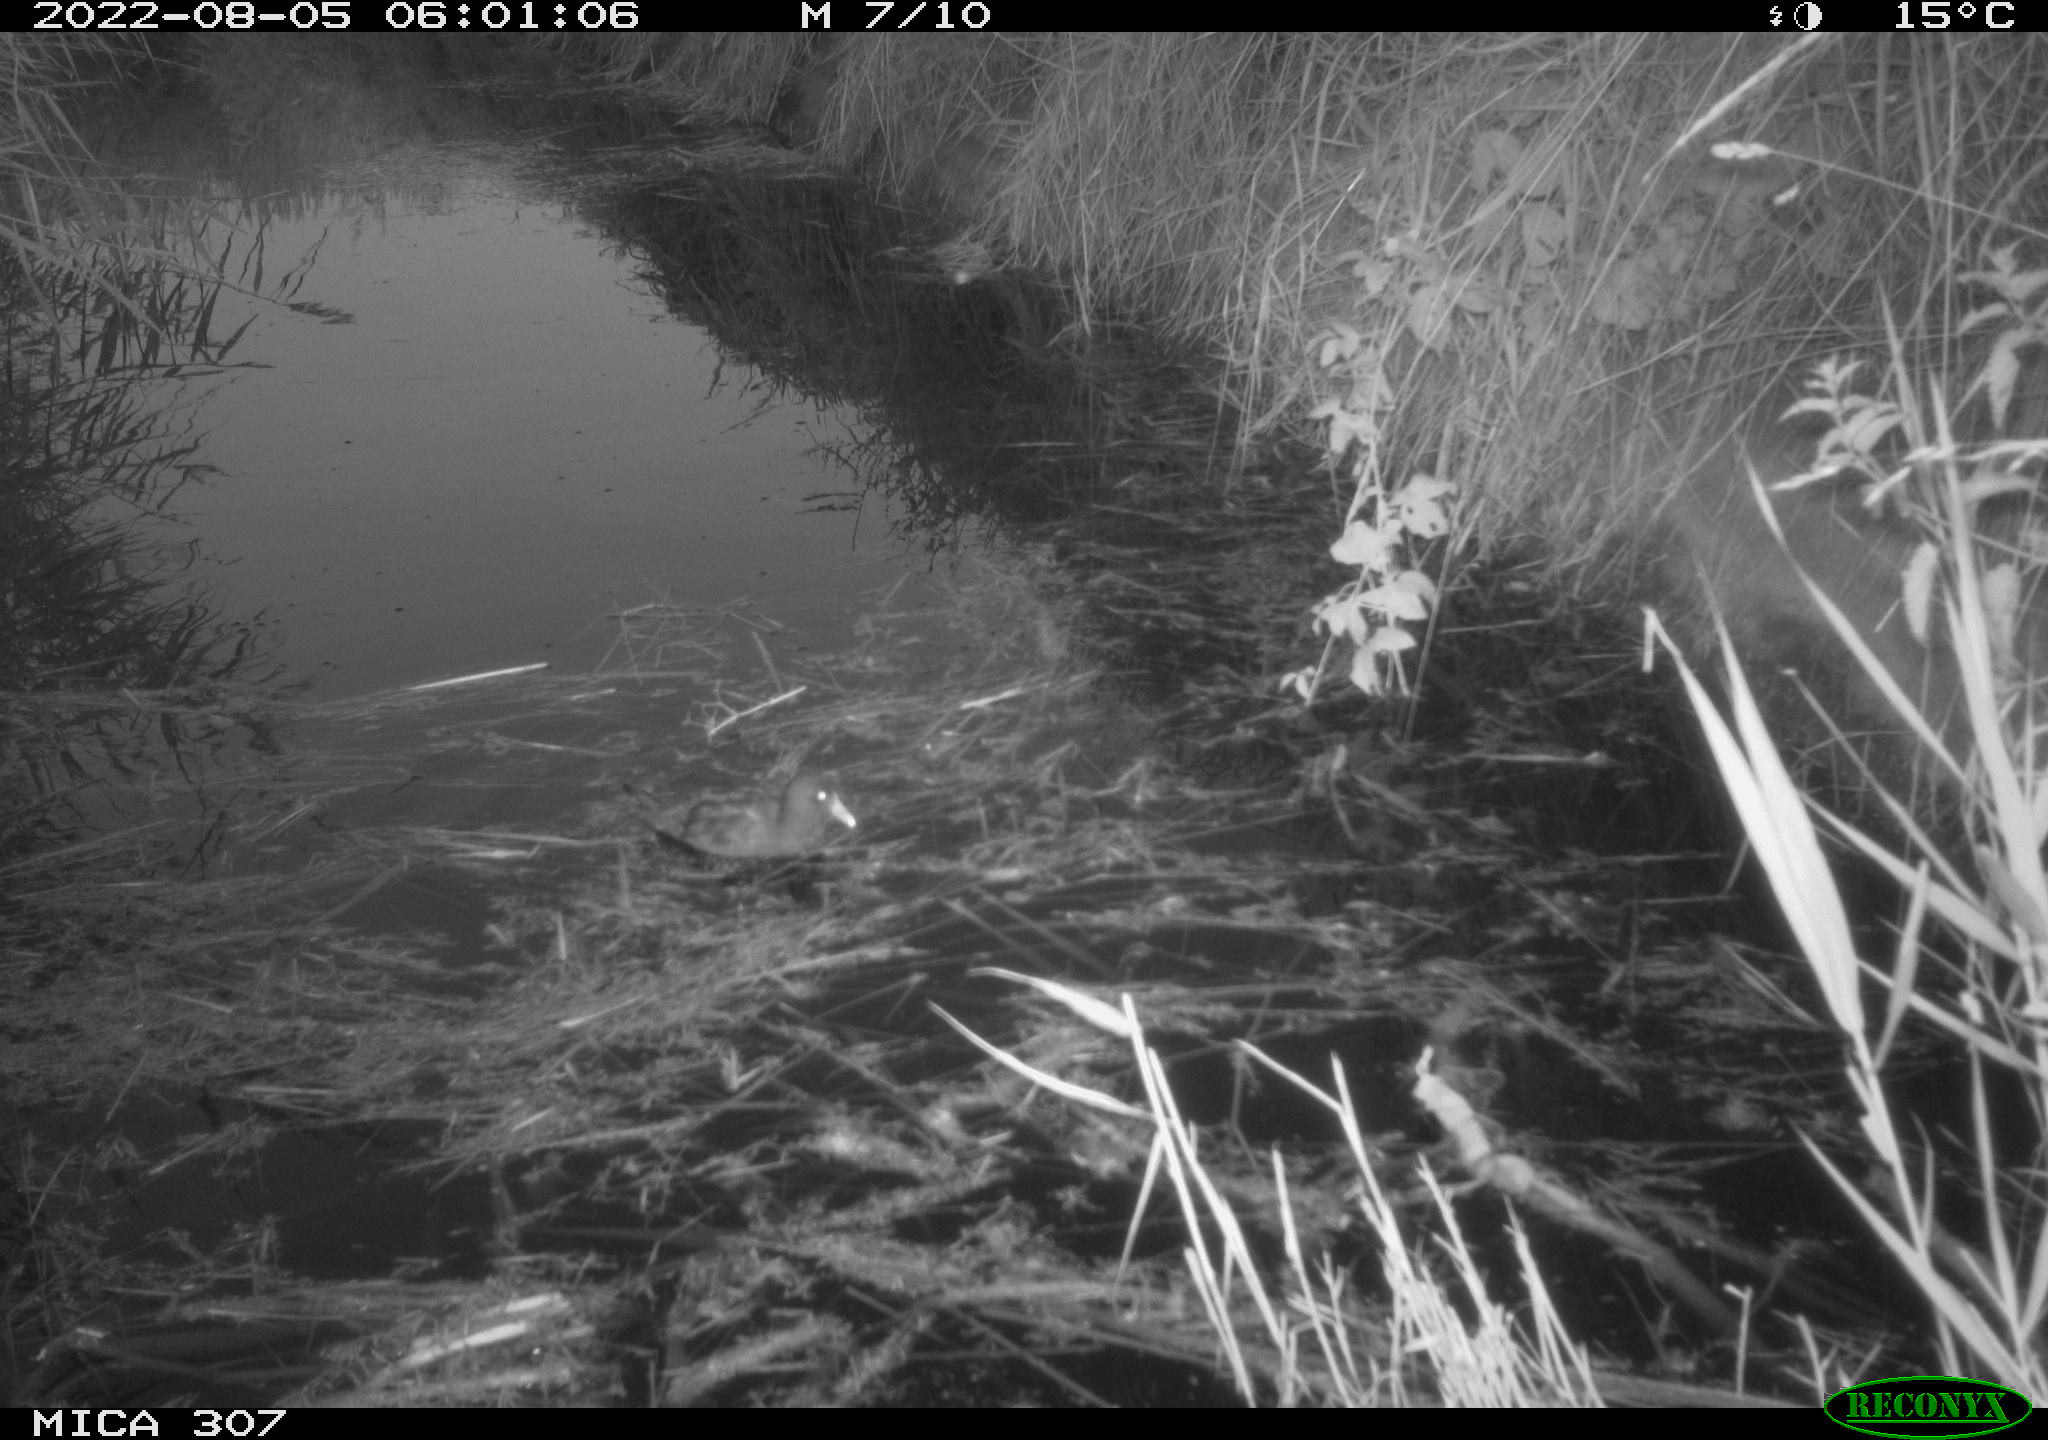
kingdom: Animalia
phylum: Chordata
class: Aves
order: Gruiformes
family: Rallidae
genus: Gallinula
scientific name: Gallinula chloropus
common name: Common moorhen
